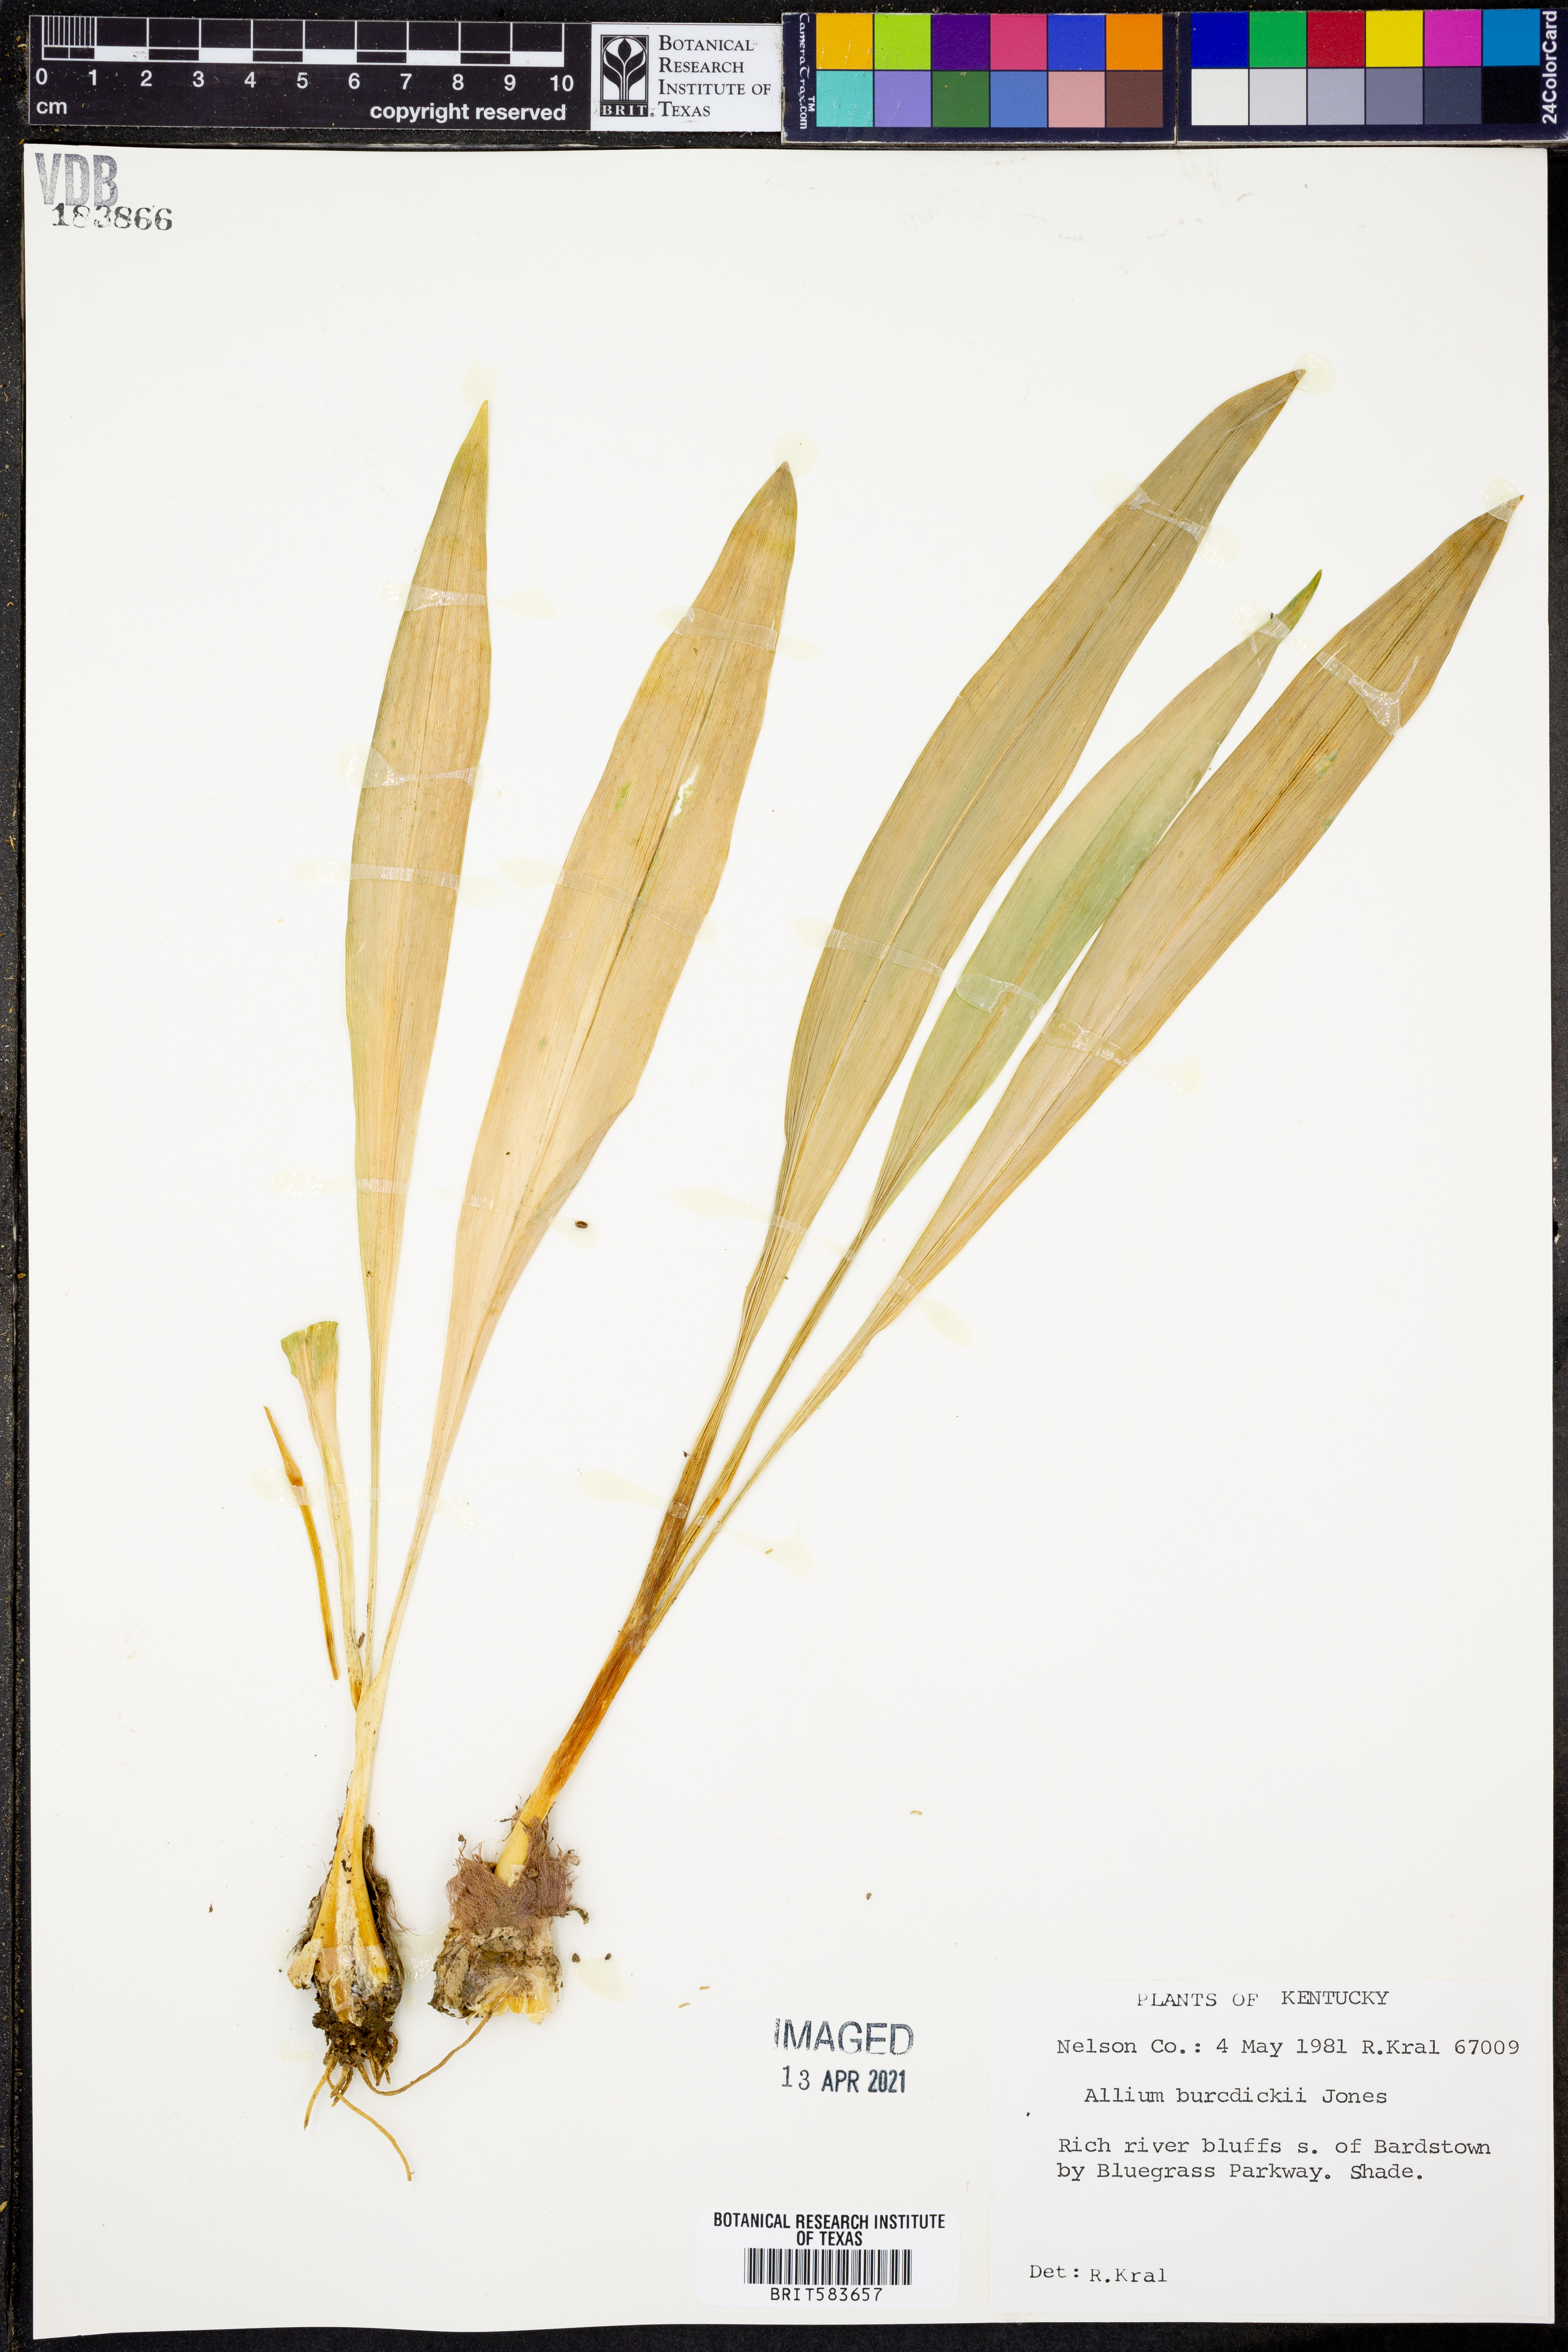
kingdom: Plantae
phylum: Tracheophyta
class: Liliopsida
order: Asparagales
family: Amaryllidaceae
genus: Allium
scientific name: Allium tricoccum
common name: Ramp
